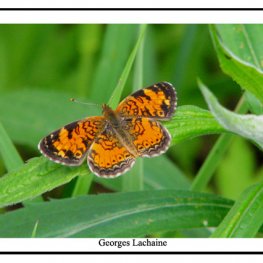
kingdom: Animalia
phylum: Arthropoda
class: Insecta
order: Lepidoptera
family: Nymphalidae
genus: Phyciodes
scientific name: Phyciodes tharos
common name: Northern Crescent
